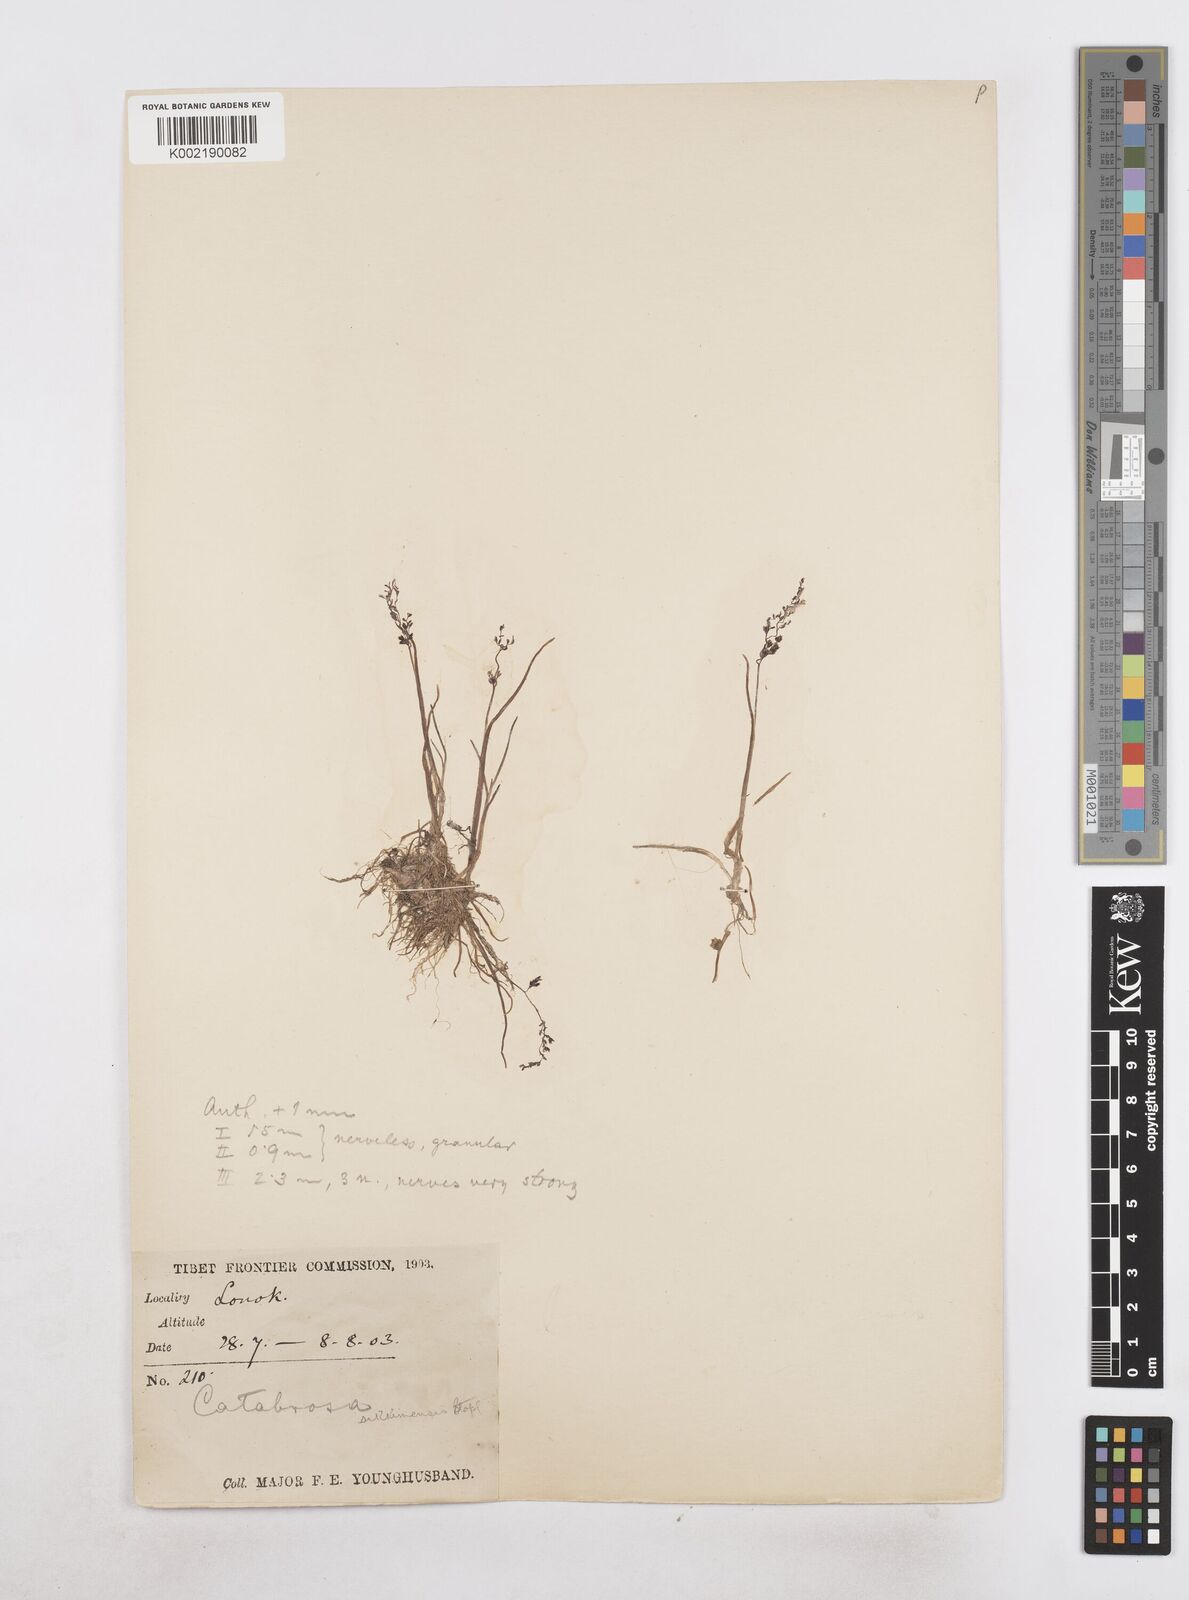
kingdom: Plantae
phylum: Tracheophyta
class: Liliopsida
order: Poales
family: Poaceae
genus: Catabrosa
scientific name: Catabrosa aquatica
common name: Whorl-grass
